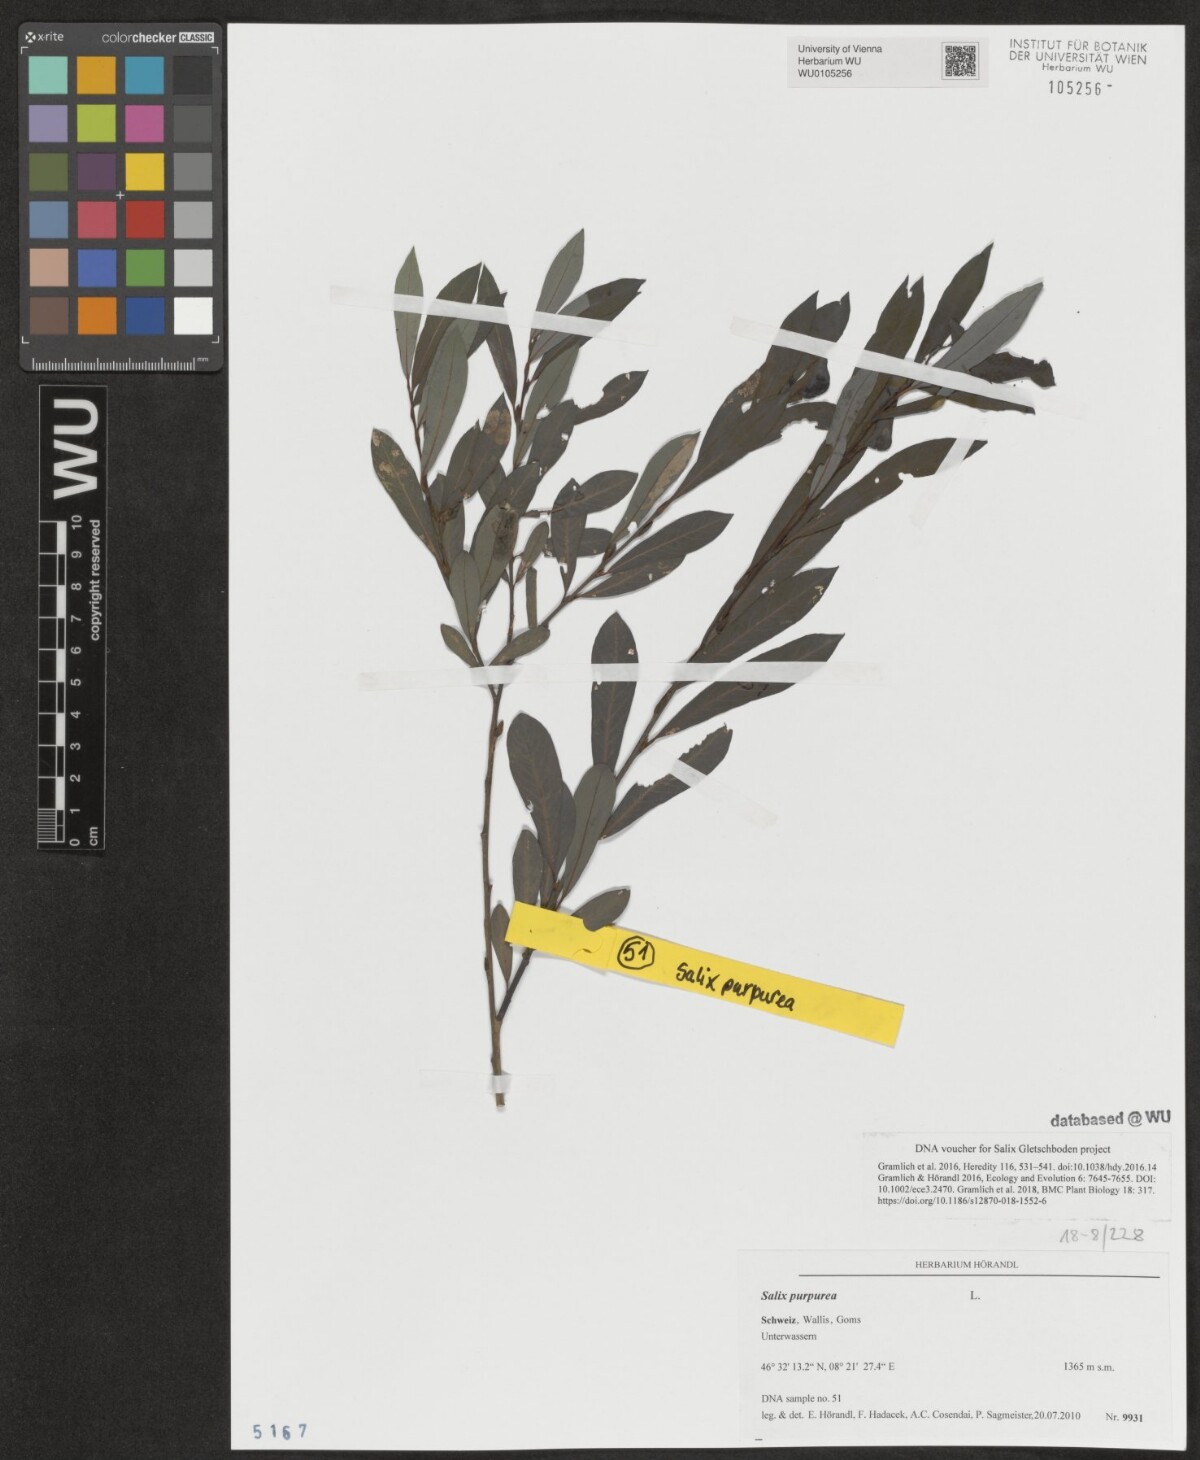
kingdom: Plantae
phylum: Tracheophyta
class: Magnoliopsida
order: Malpighiales
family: Salicaceae
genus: Salix
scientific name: Salix purpurea
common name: Purple willow
